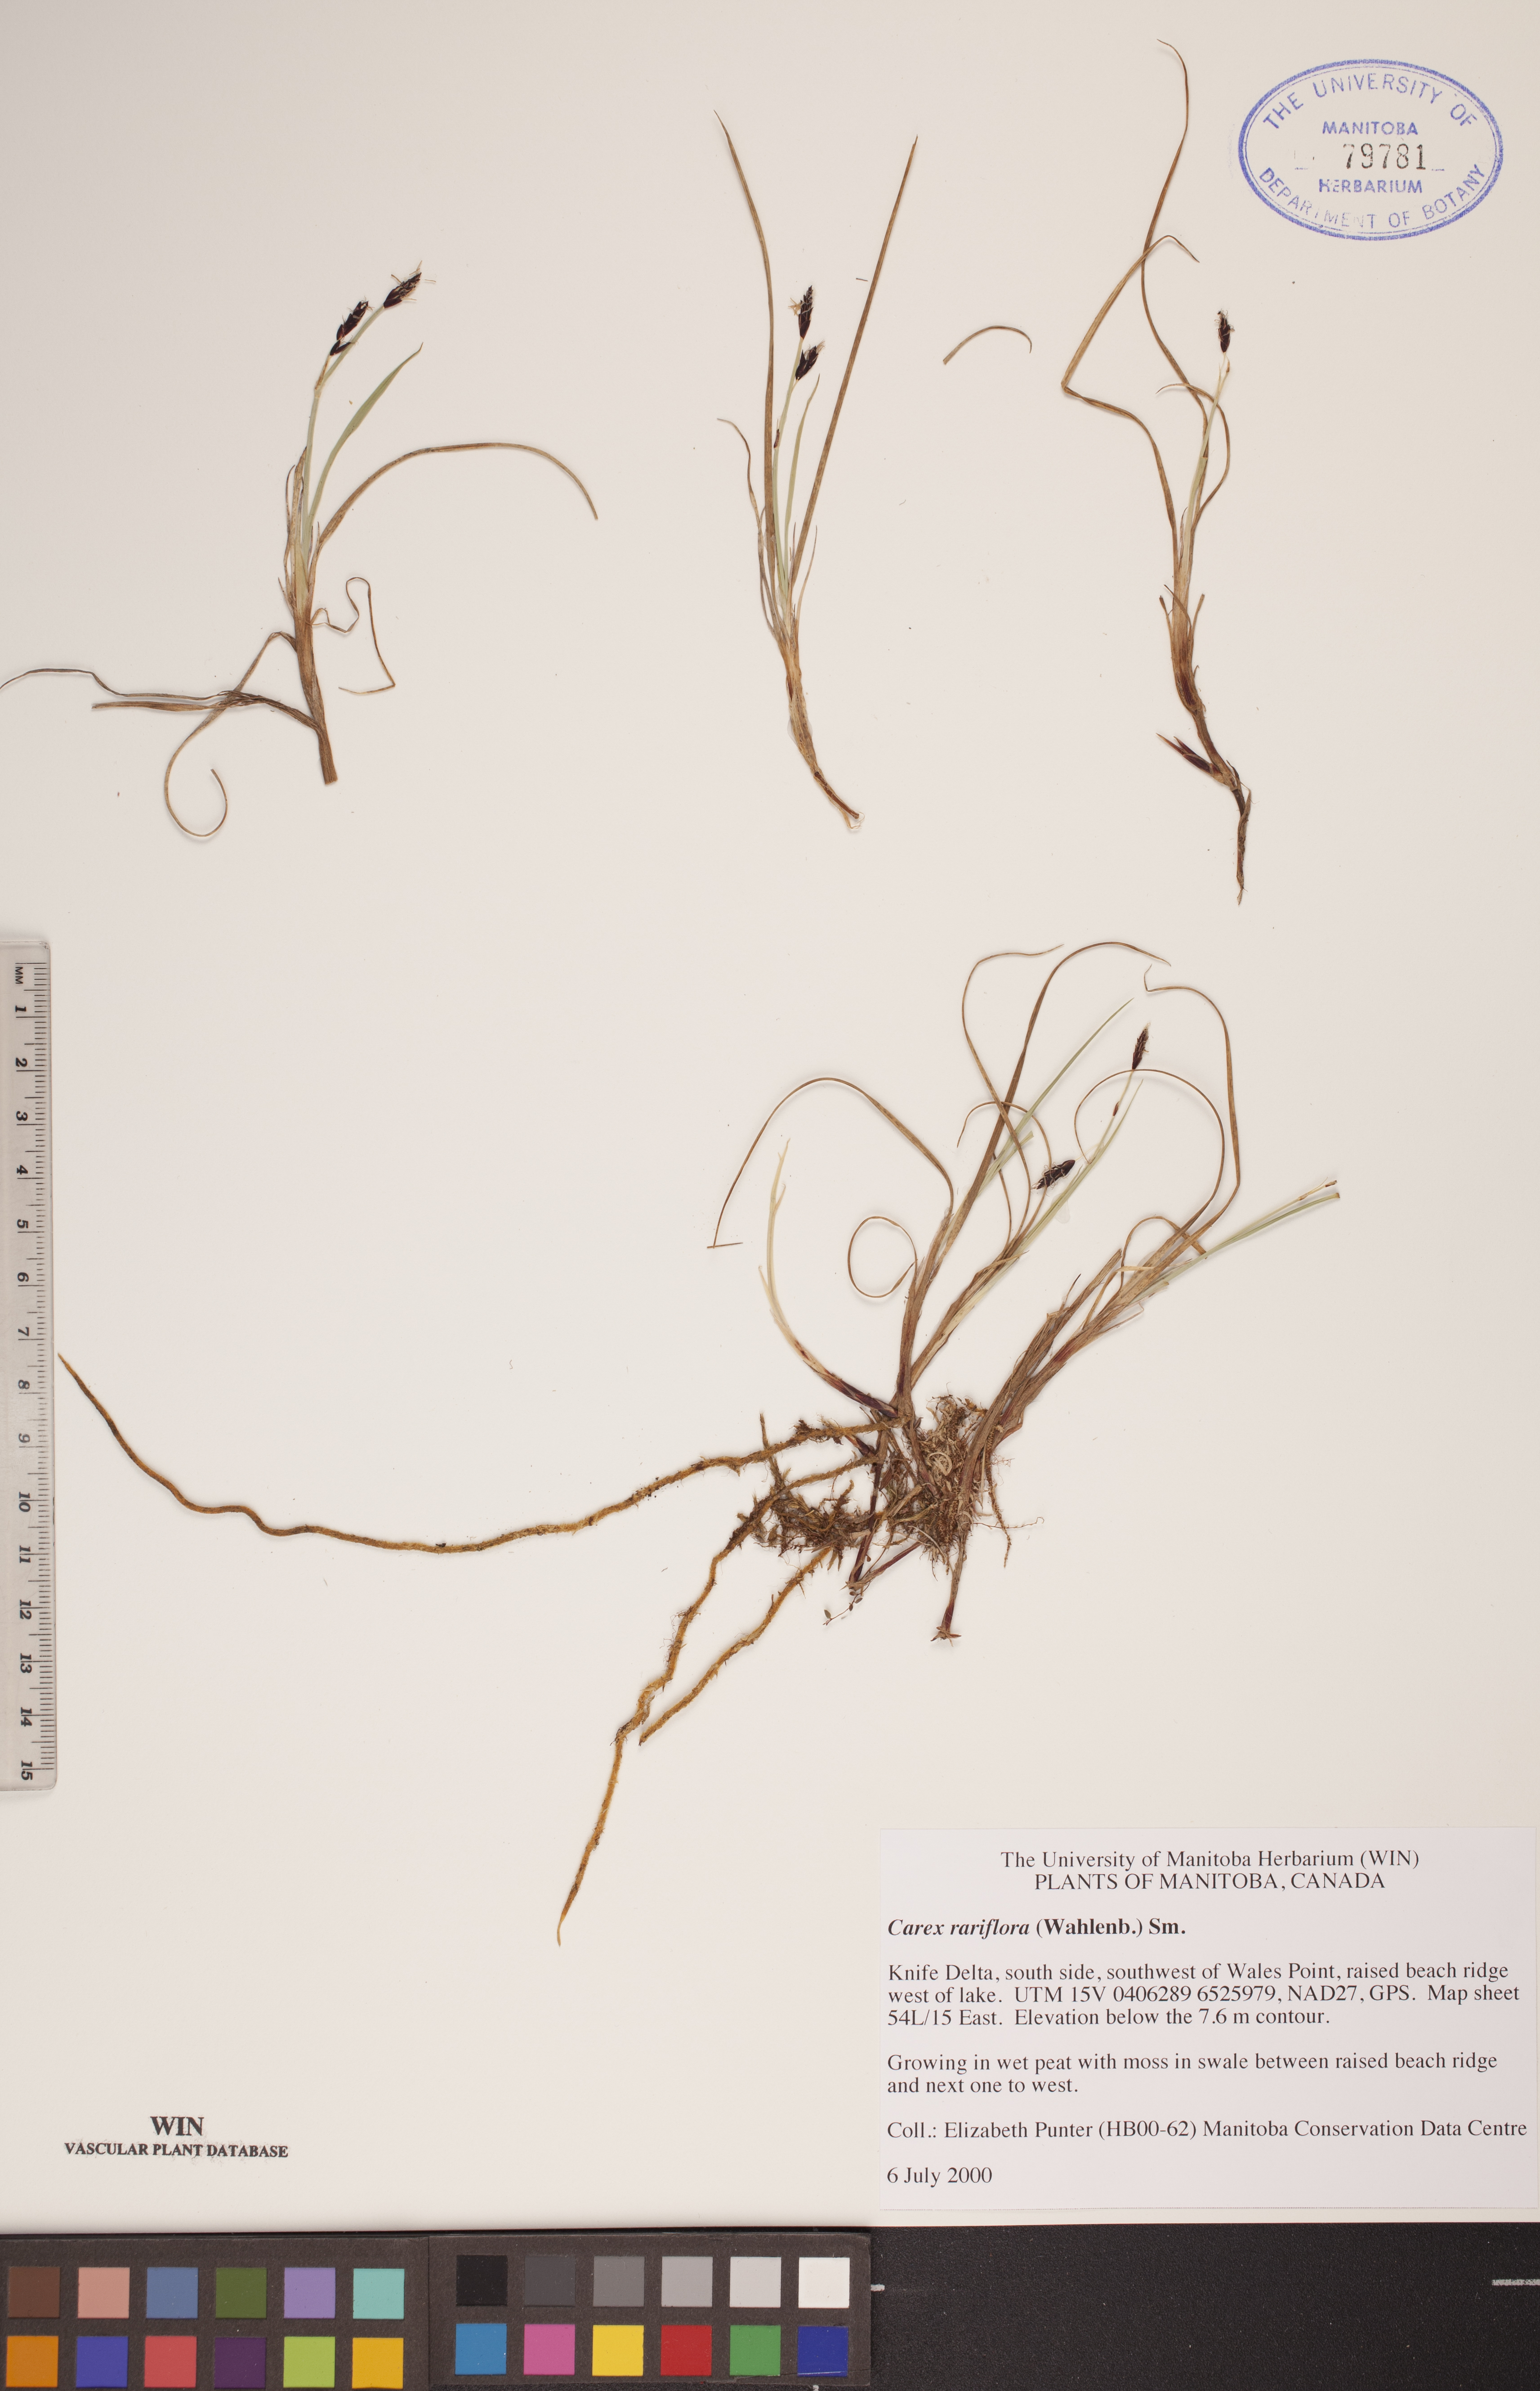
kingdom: Plantae
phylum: Tracheophyta
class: Liliopsida
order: Poales
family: Cyperaceae
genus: Carex
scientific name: Carex rariflora
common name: Loose-flowered alpine sedge
